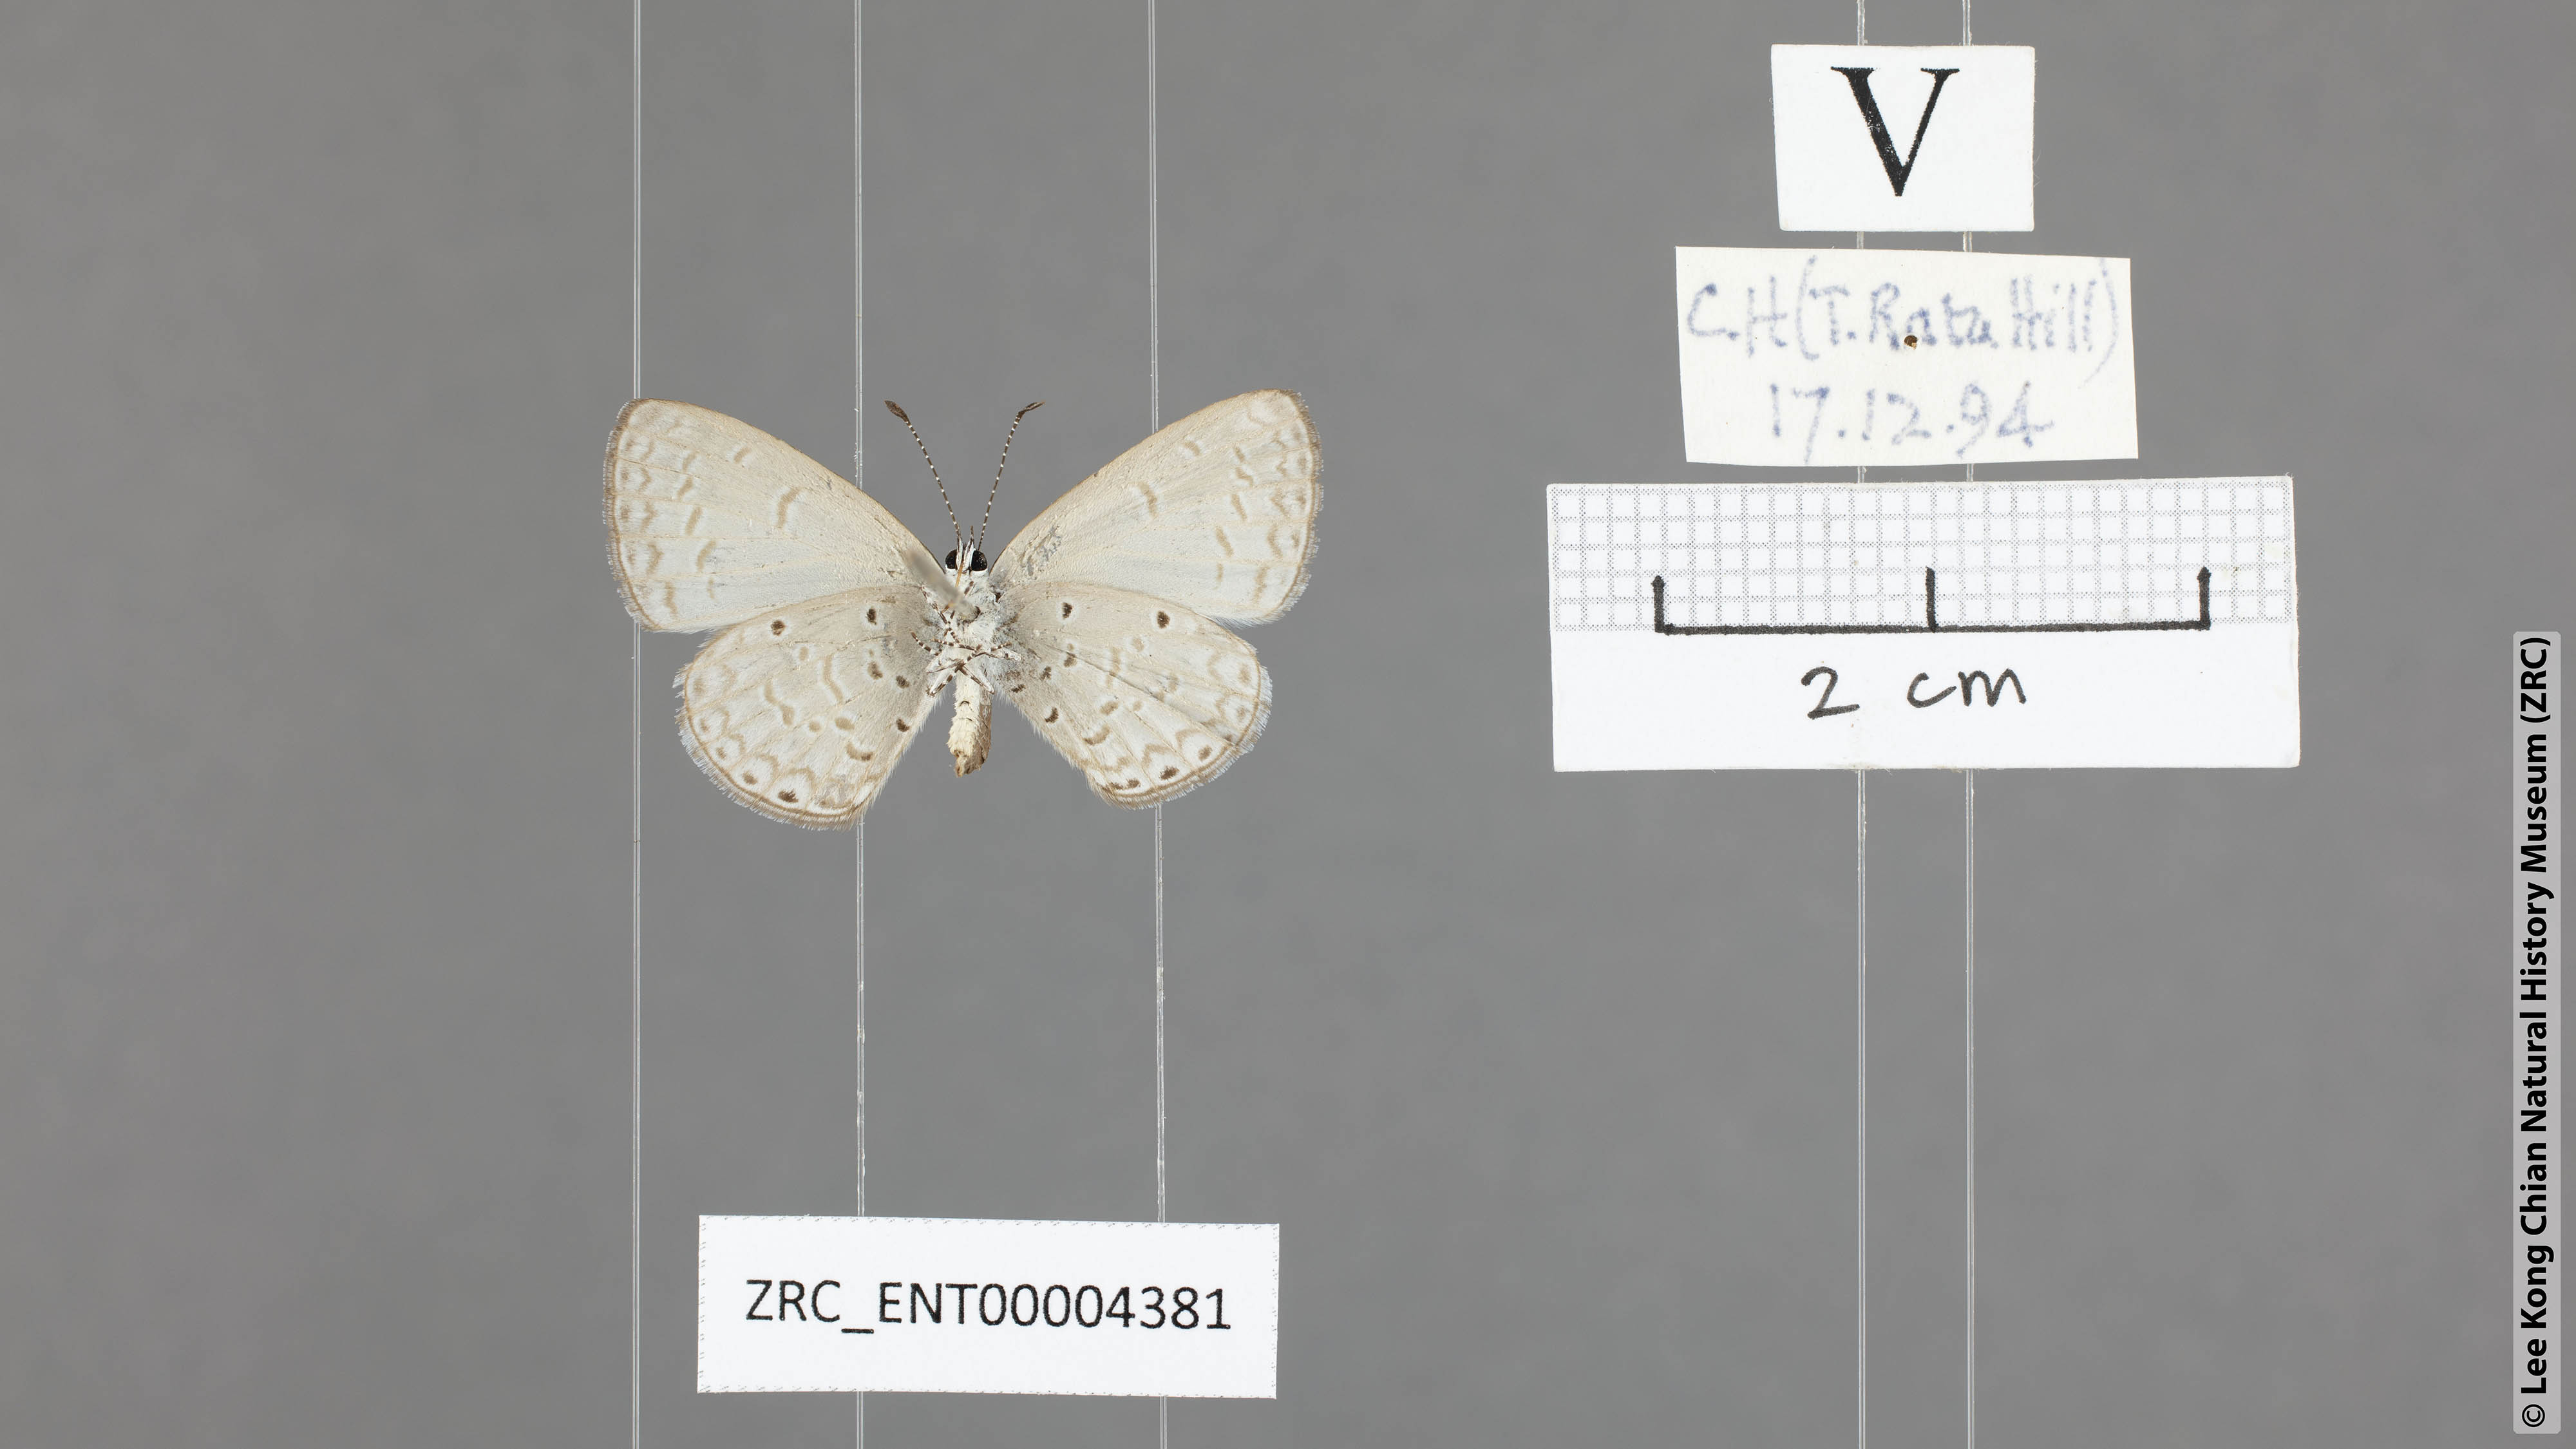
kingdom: Animalia
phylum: Arthropoda
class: Insecta
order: Lepidoptera
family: Lycaenidae
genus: Monodontides
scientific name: Monodontides
